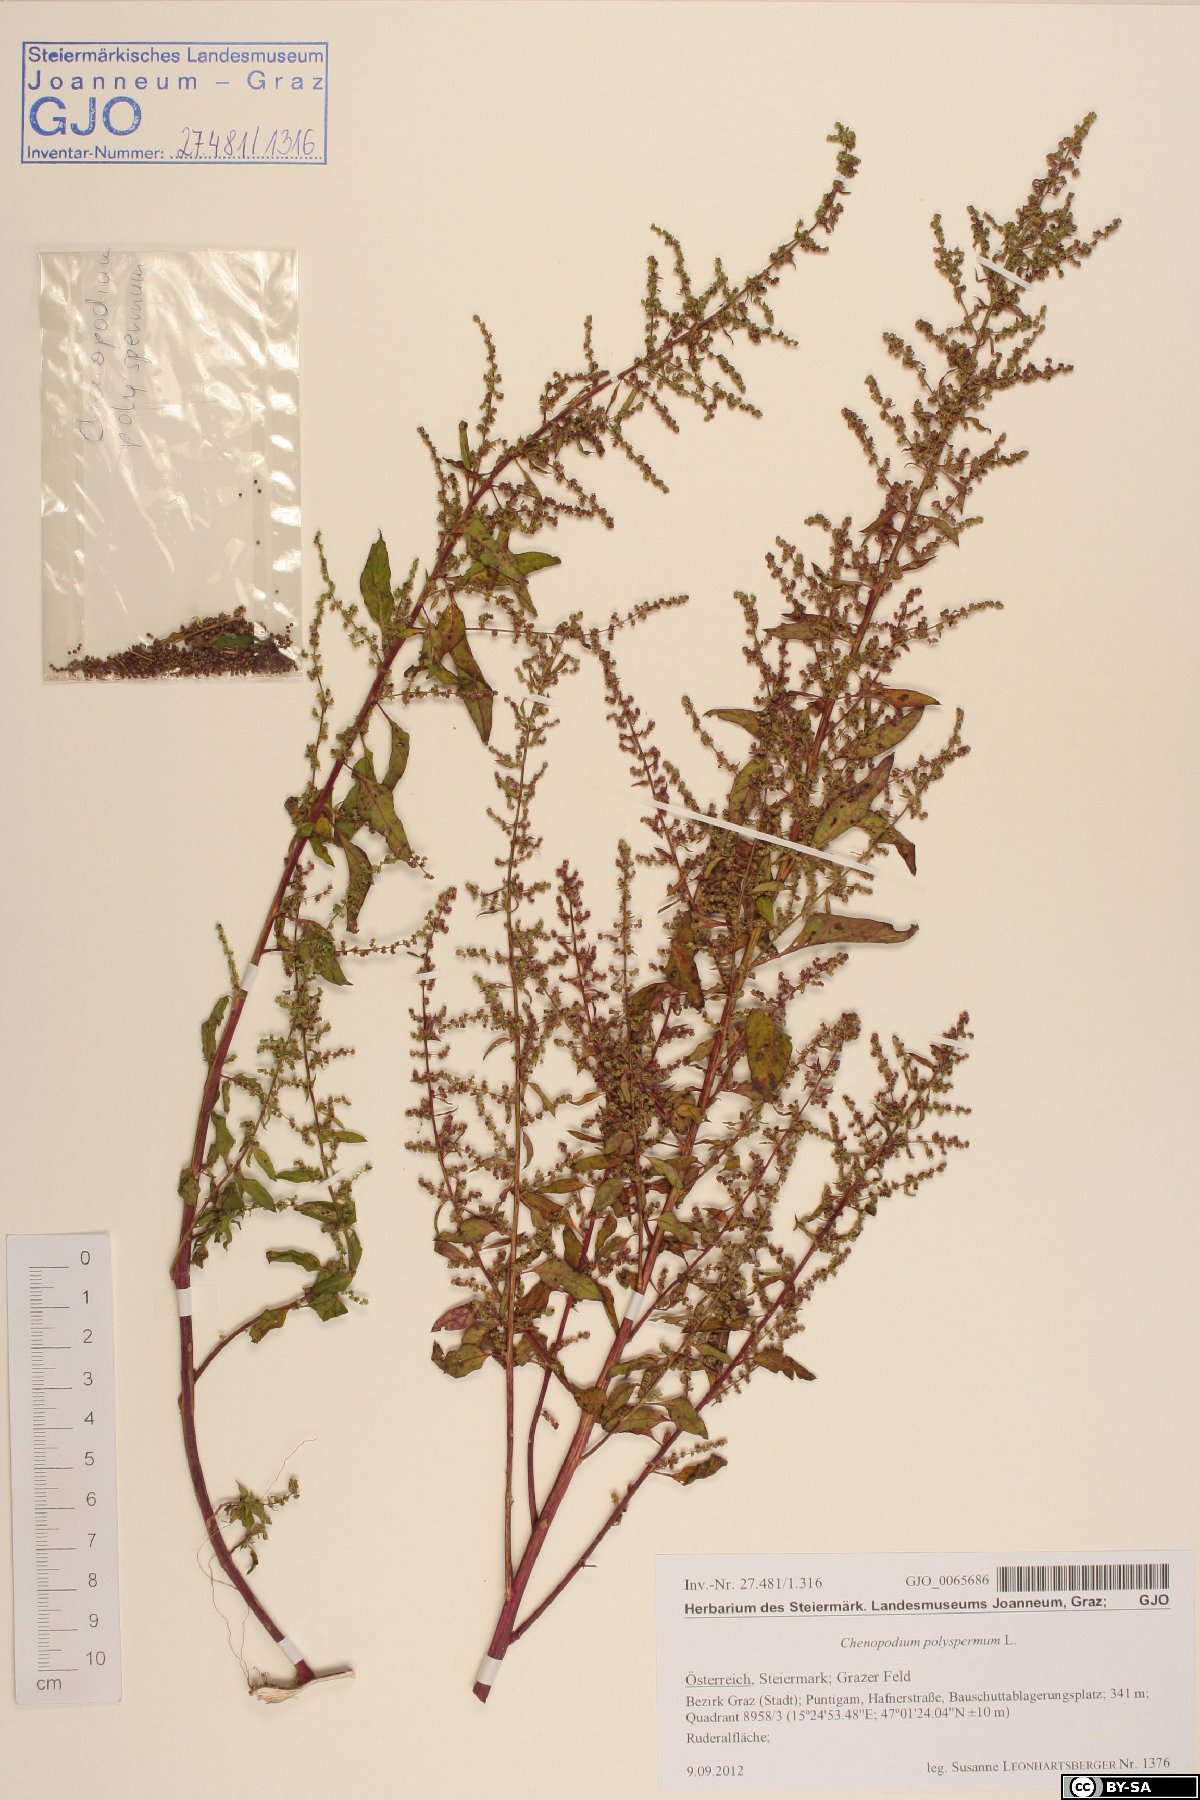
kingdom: Plantae
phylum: Tracheophyta
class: Magnoliopsida
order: Caryophyllales
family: Amaranthaceae
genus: Lipandra
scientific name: Lipandra polysperma
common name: Many-seed goosefoot
